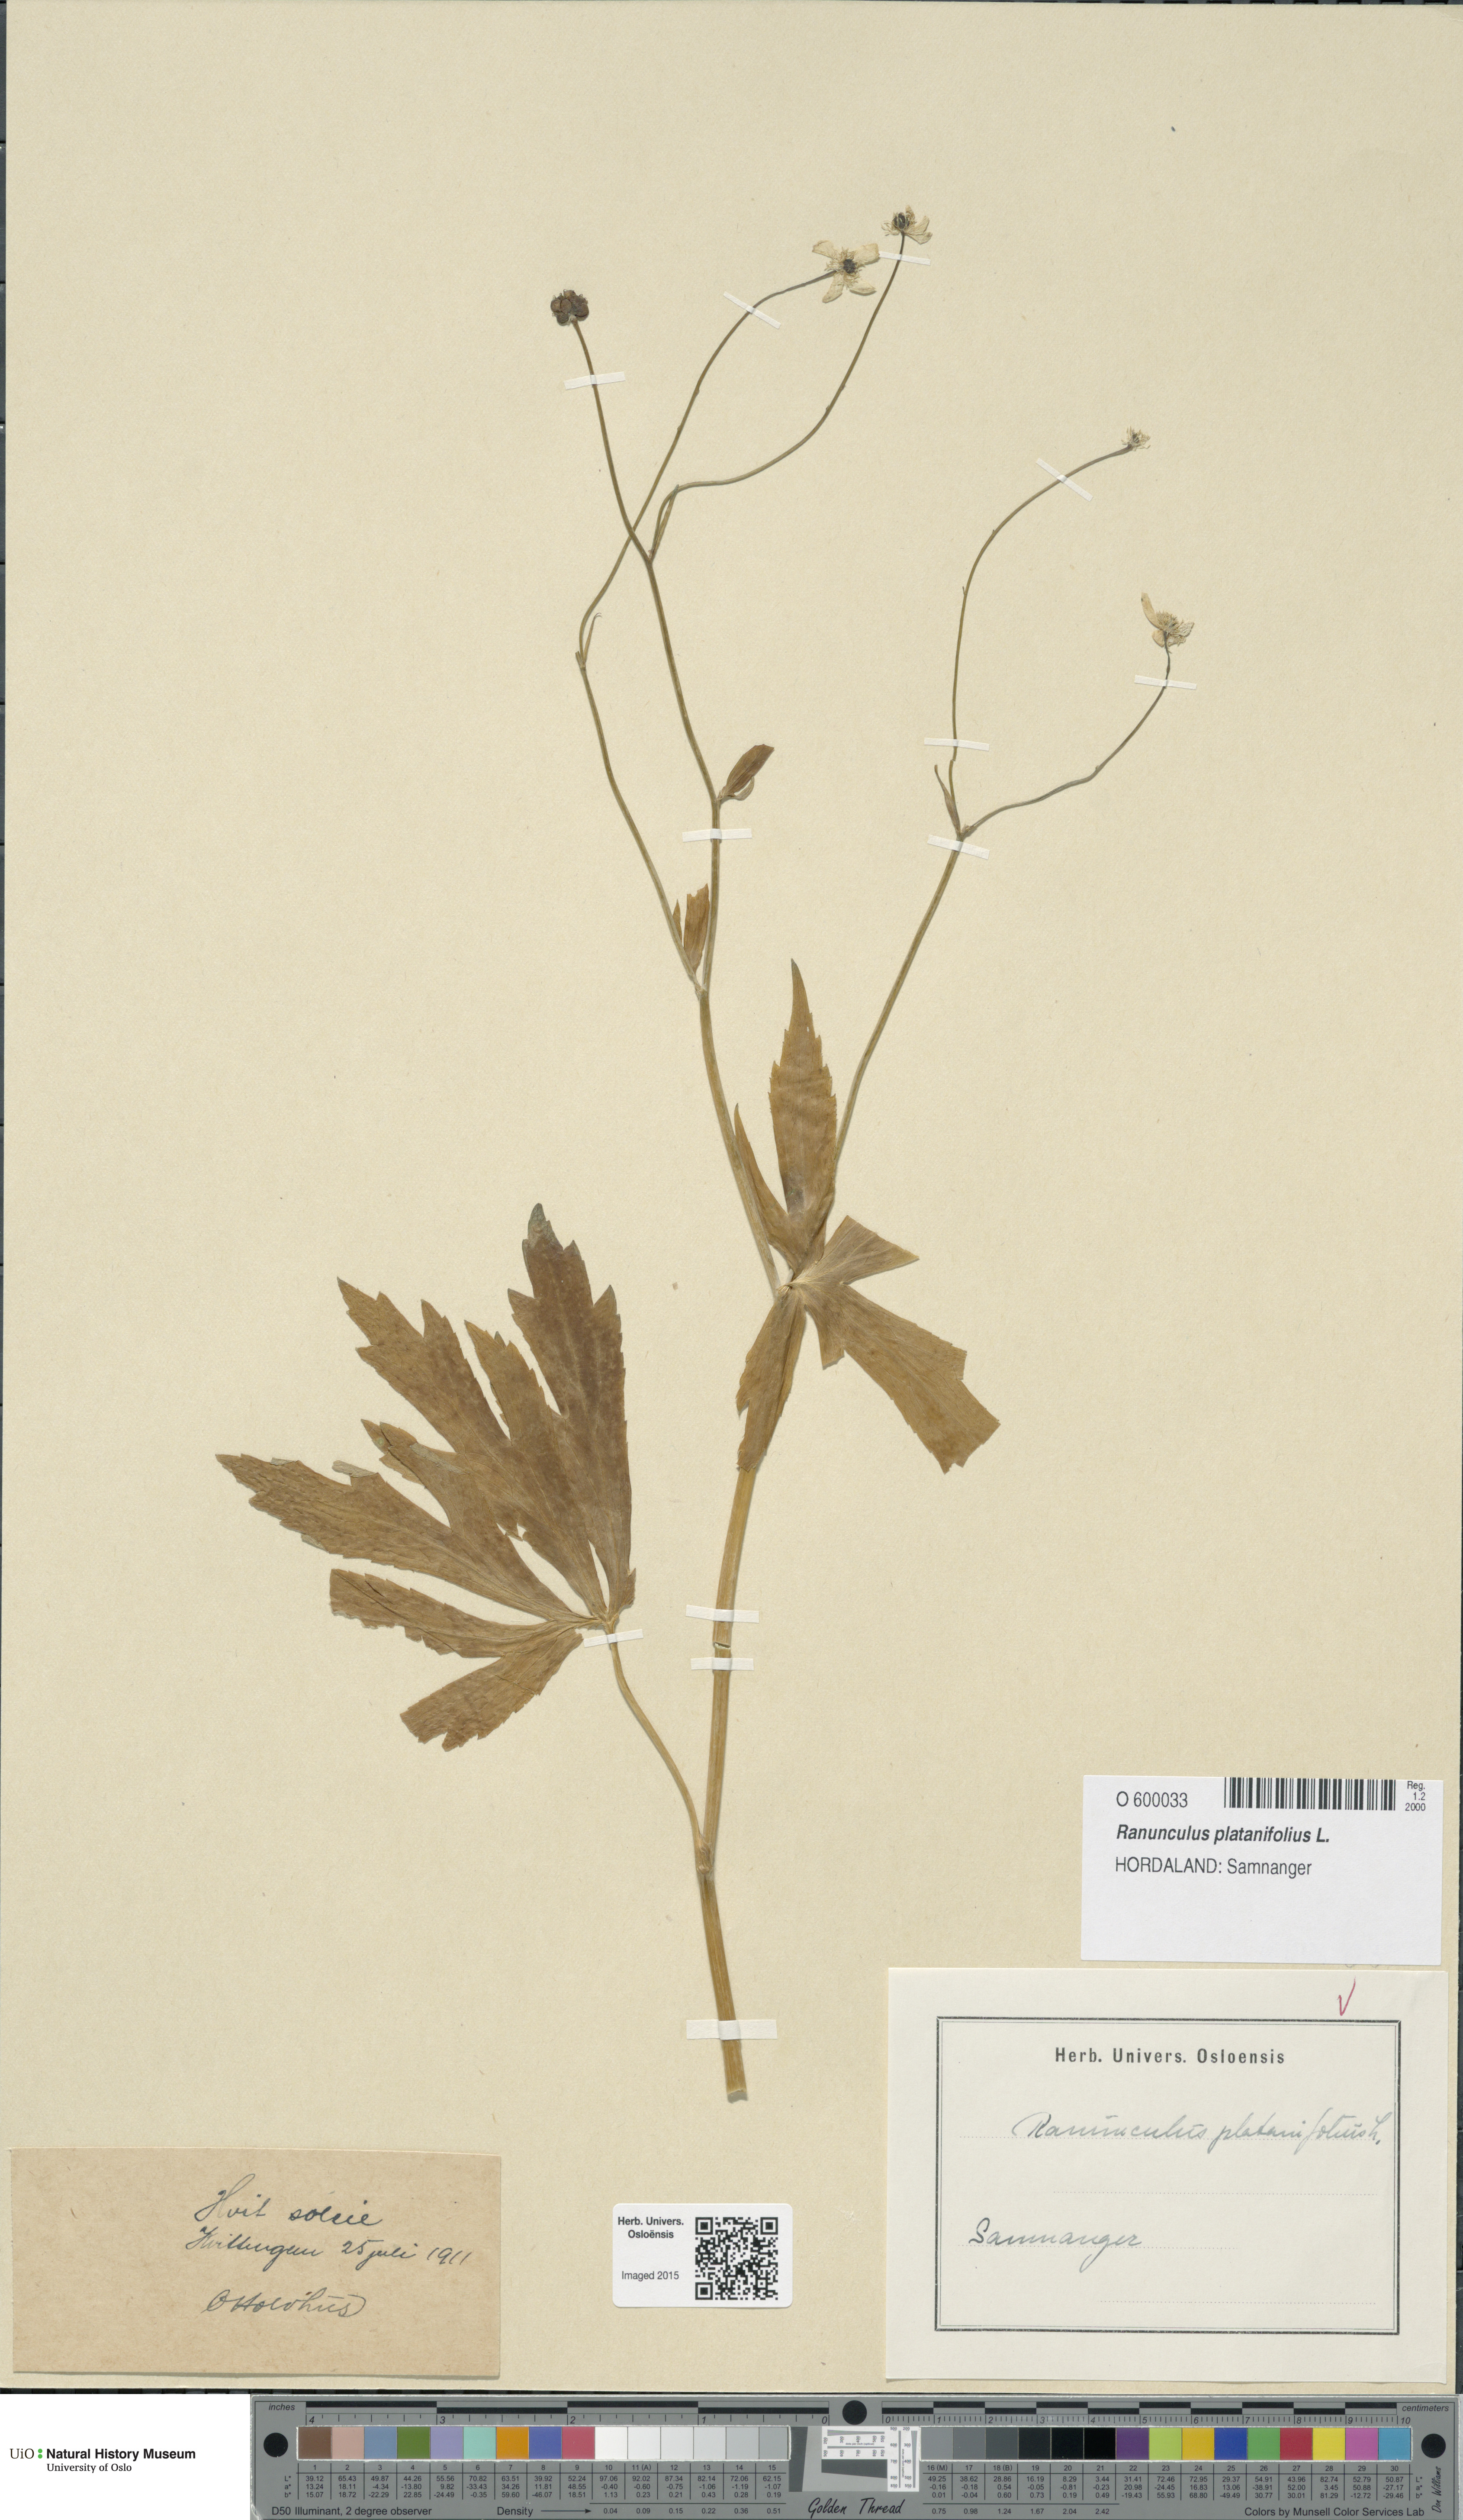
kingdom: Plantae
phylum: Tracheophyta
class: Magnoliopsida
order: Ranunculales
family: Ranunculaceae
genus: Ranunculus
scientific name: Ranunculus platanifolius
